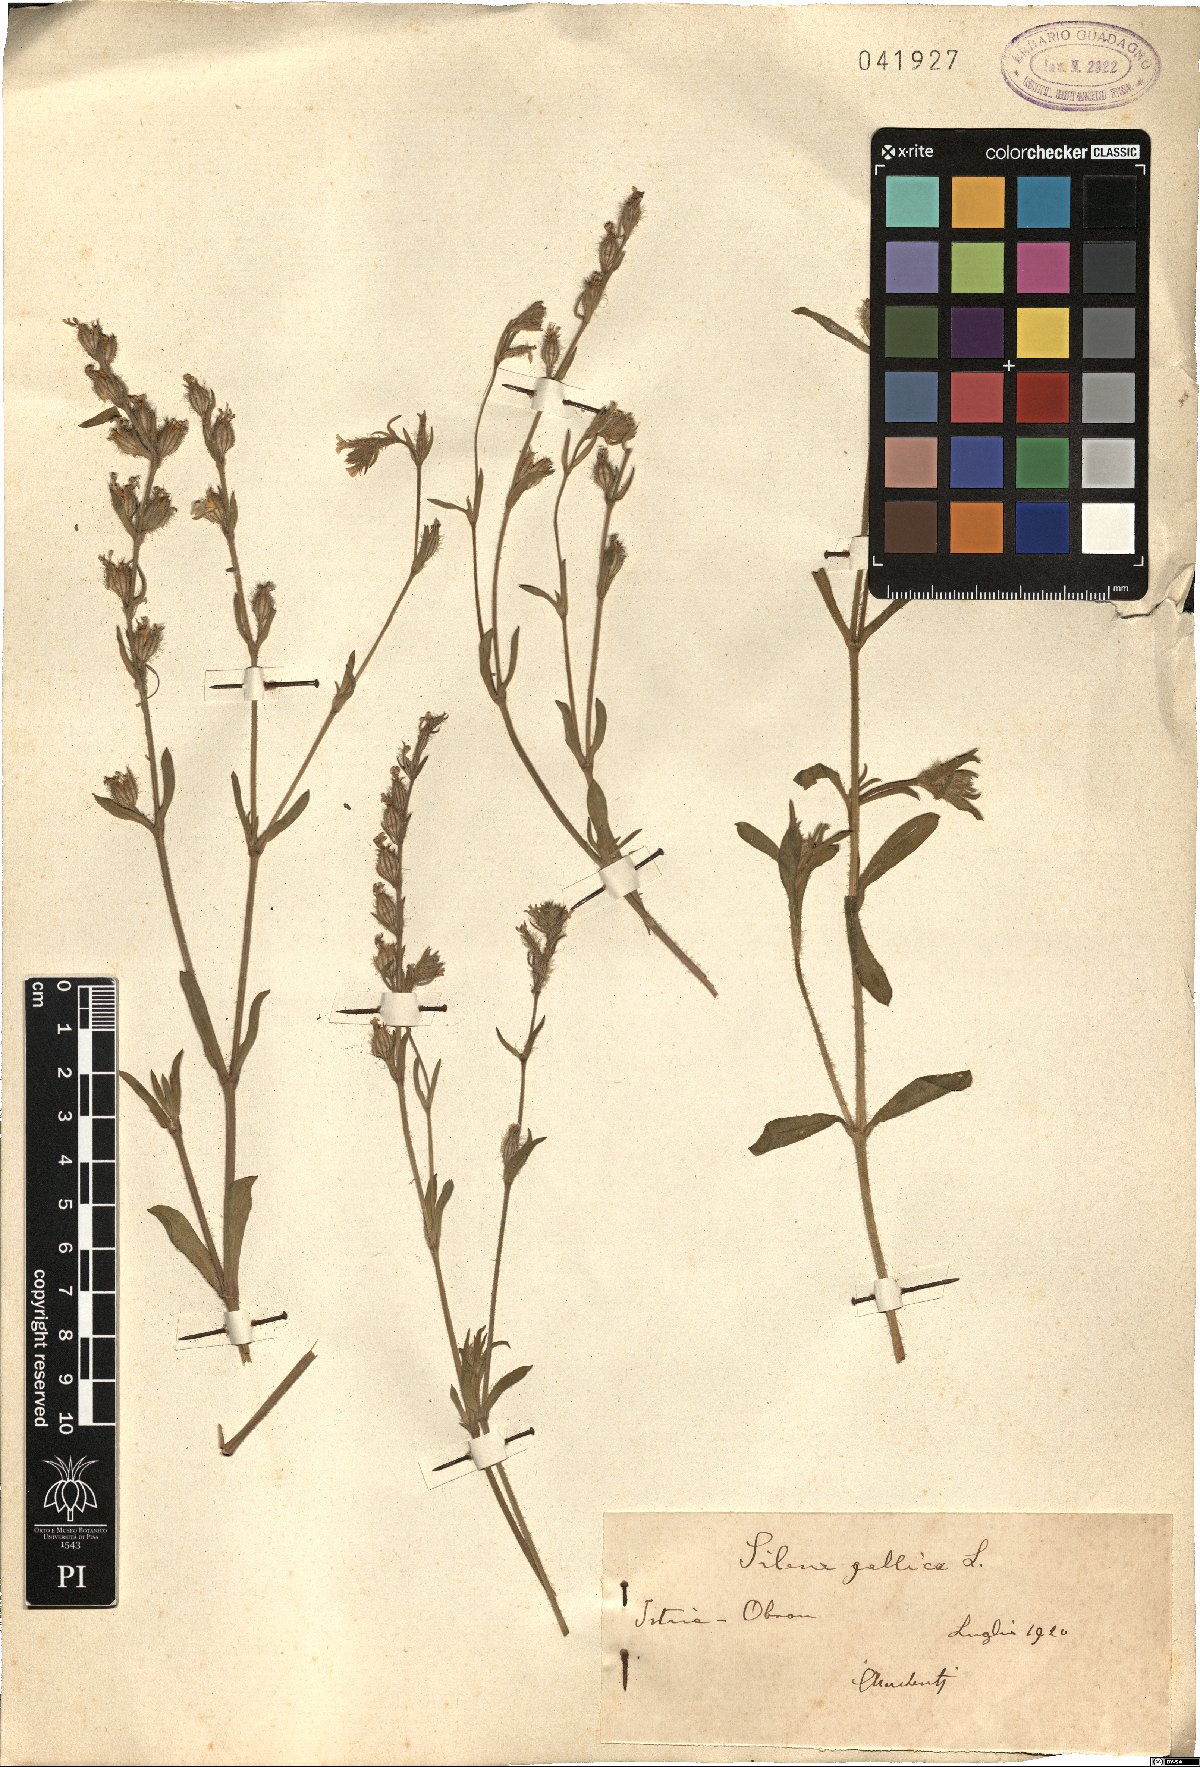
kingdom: Plantae
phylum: Tracheophyta
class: Magnoliopsida
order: Caryophyllales
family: Caryophyllaceae
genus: Silene
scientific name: Silene gallica
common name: Small-flowered catchfly
